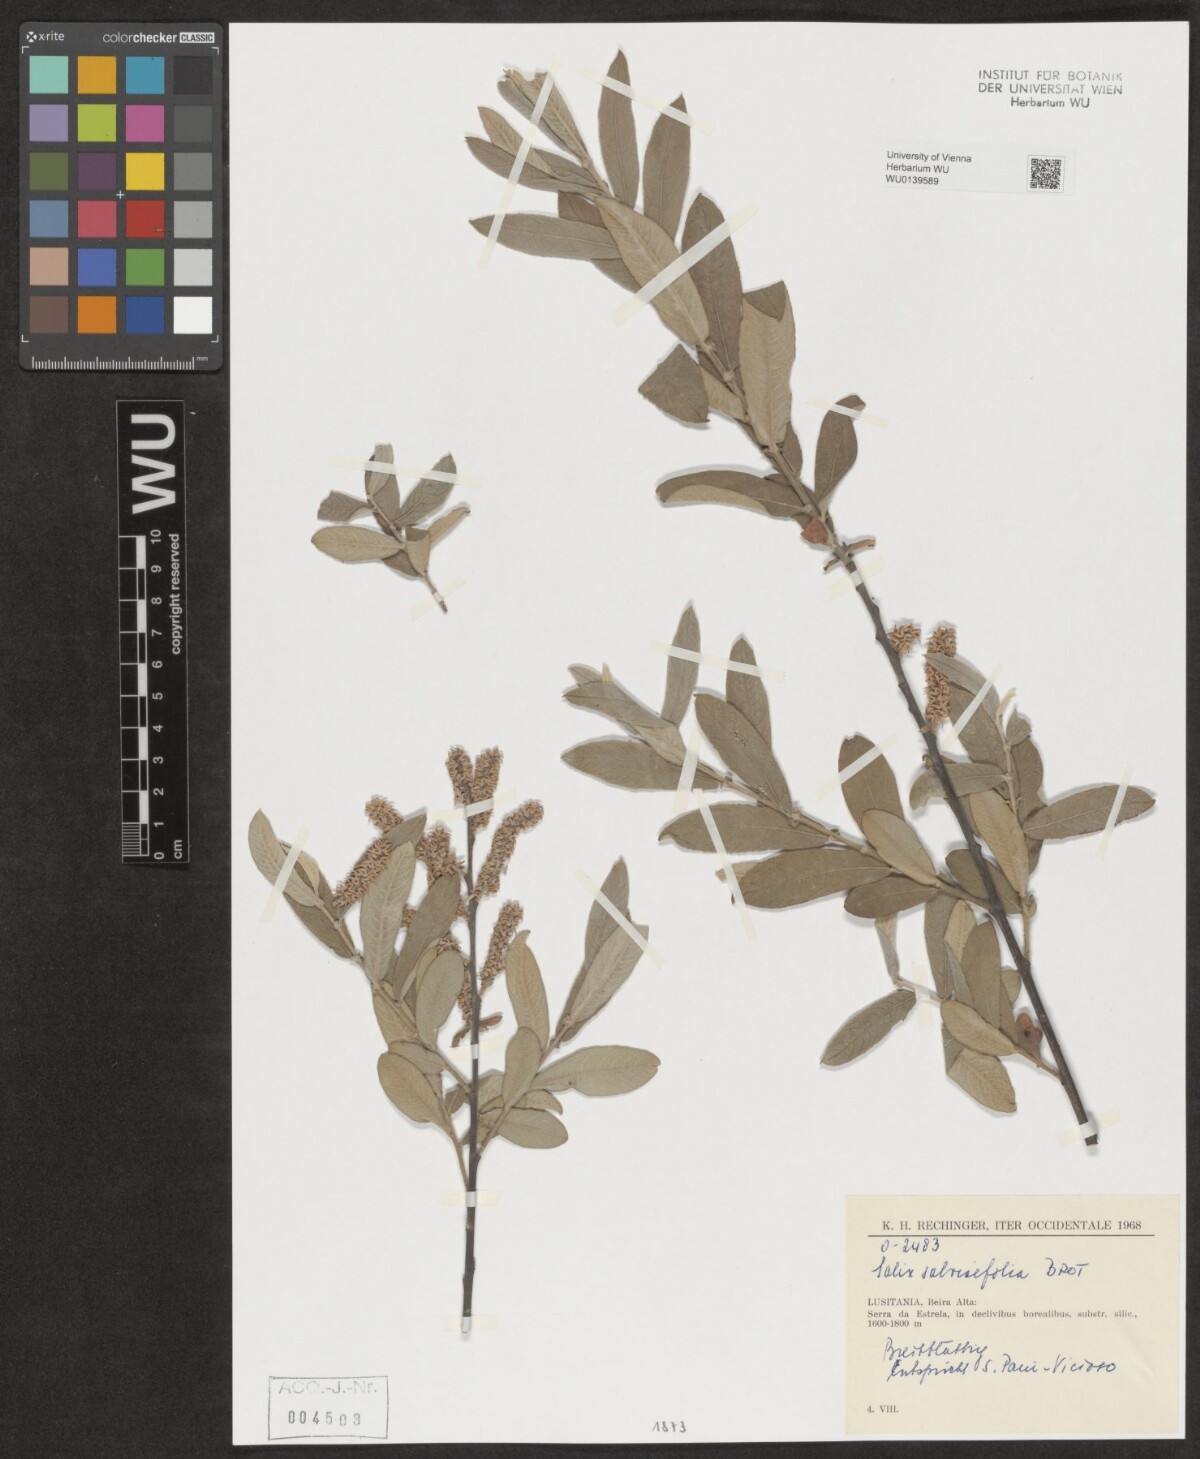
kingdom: Plantae
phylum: Tracheophyta
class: Magnoliopsida
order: Malpighiales
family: Salicaceae
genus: Salix
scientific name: Salix salviifolia
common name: Salvia-leaf willow
